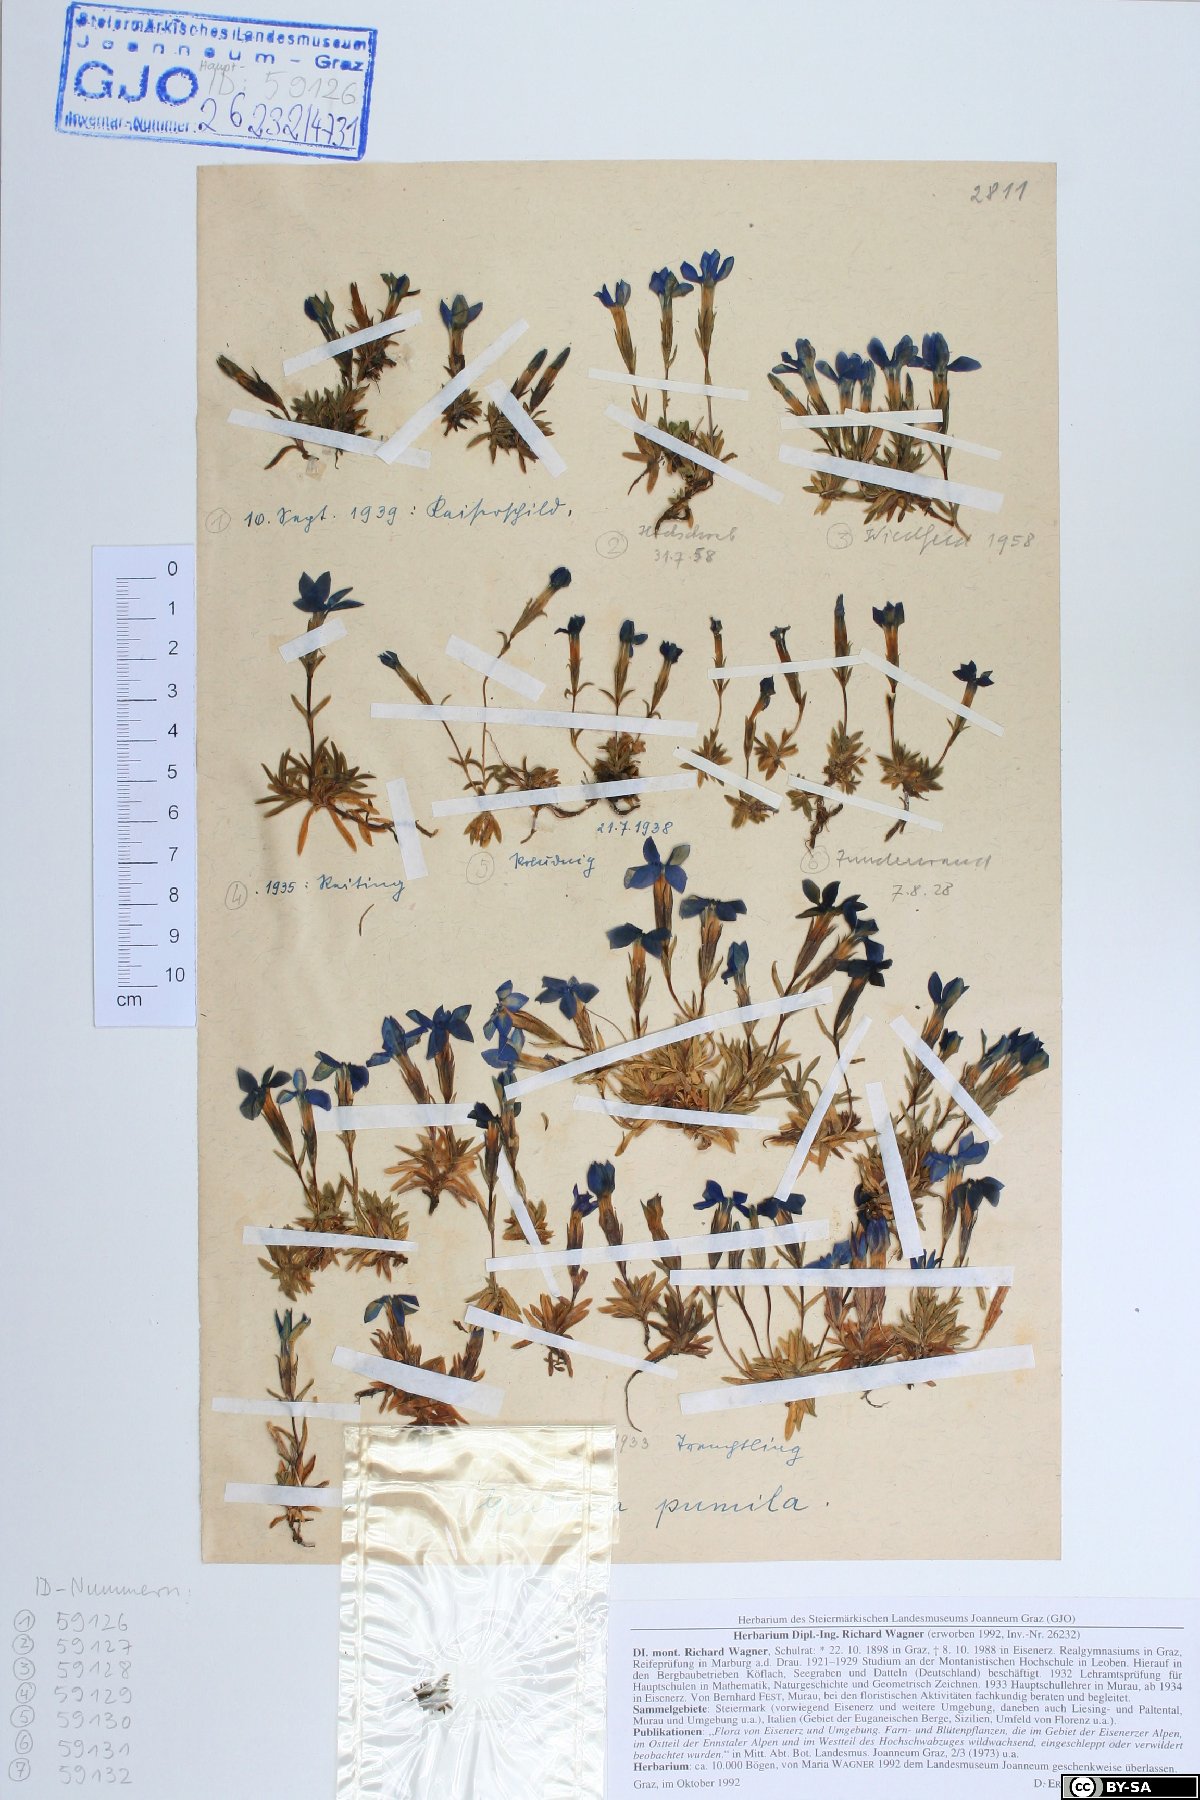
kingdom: Plantae
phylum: Tracheophyta
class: Magnoliopsida
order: Gentianales
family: Gentianaceae
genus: Gentiana
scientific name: Gentiana pumila
